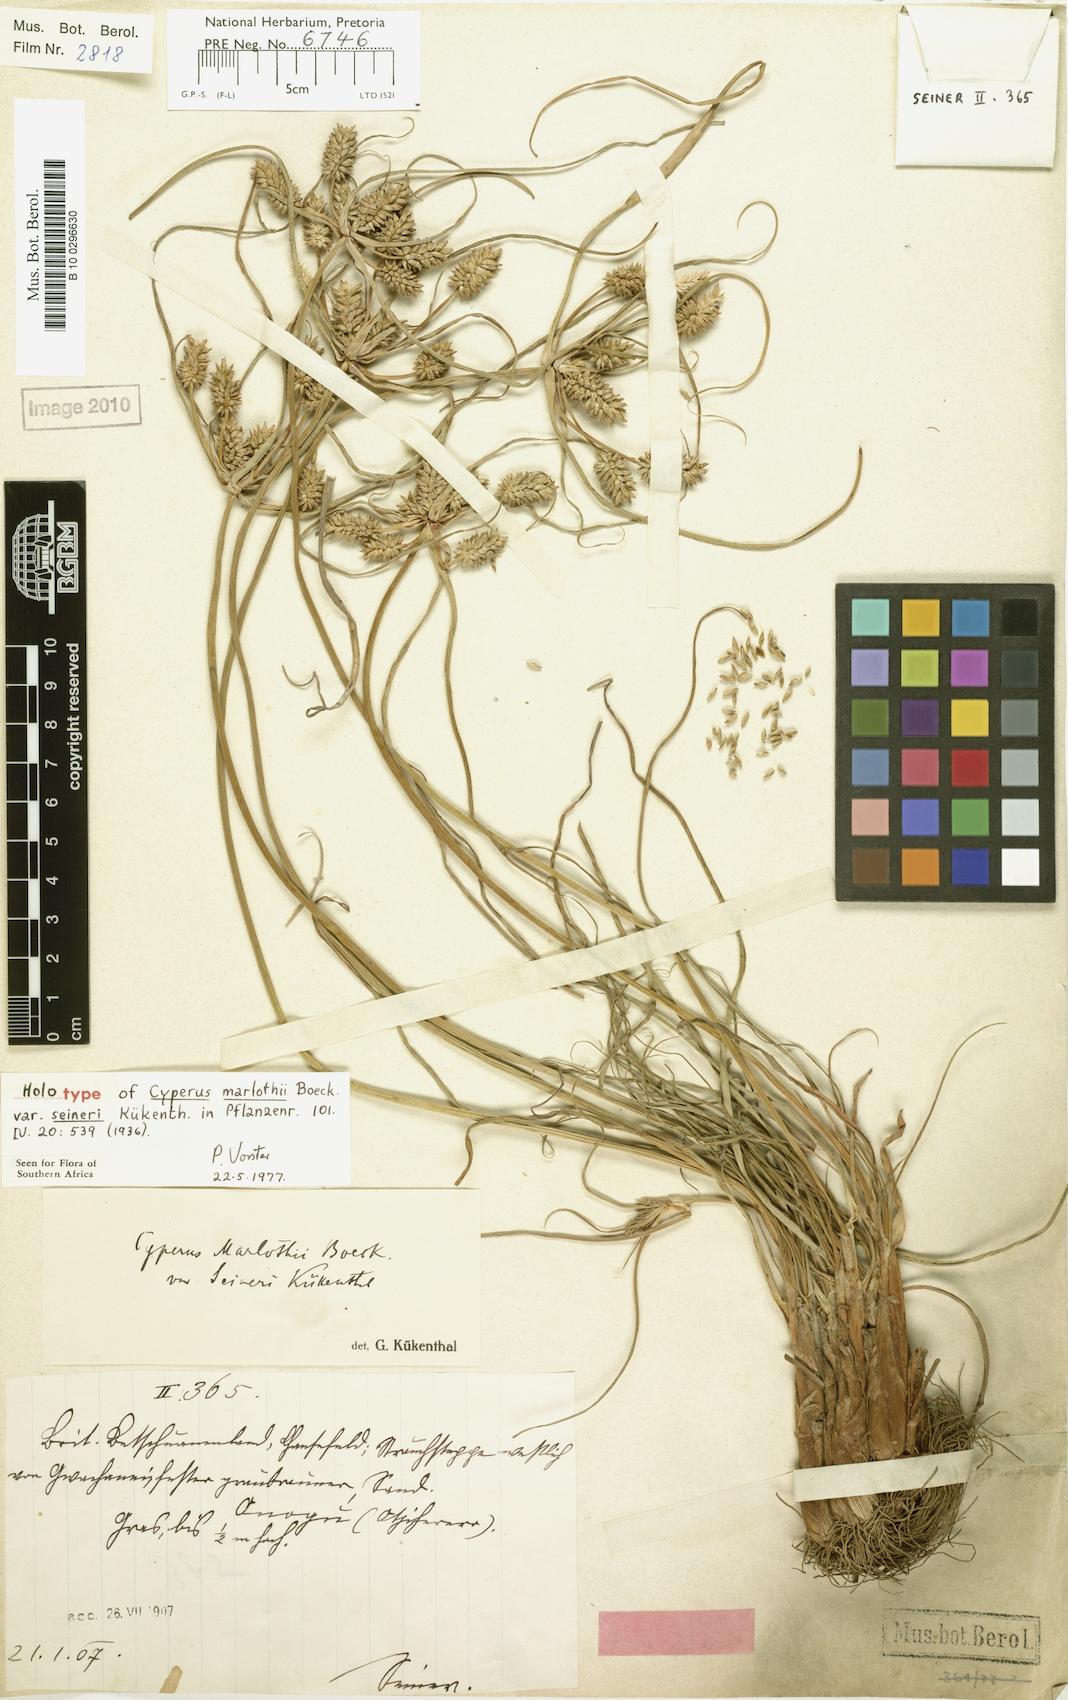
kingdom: Plantae
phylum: Tracheophyta
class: Liliopsida
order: Poales
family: Cyperaceae
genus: Cyperus
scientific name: Cyperus marlothii
